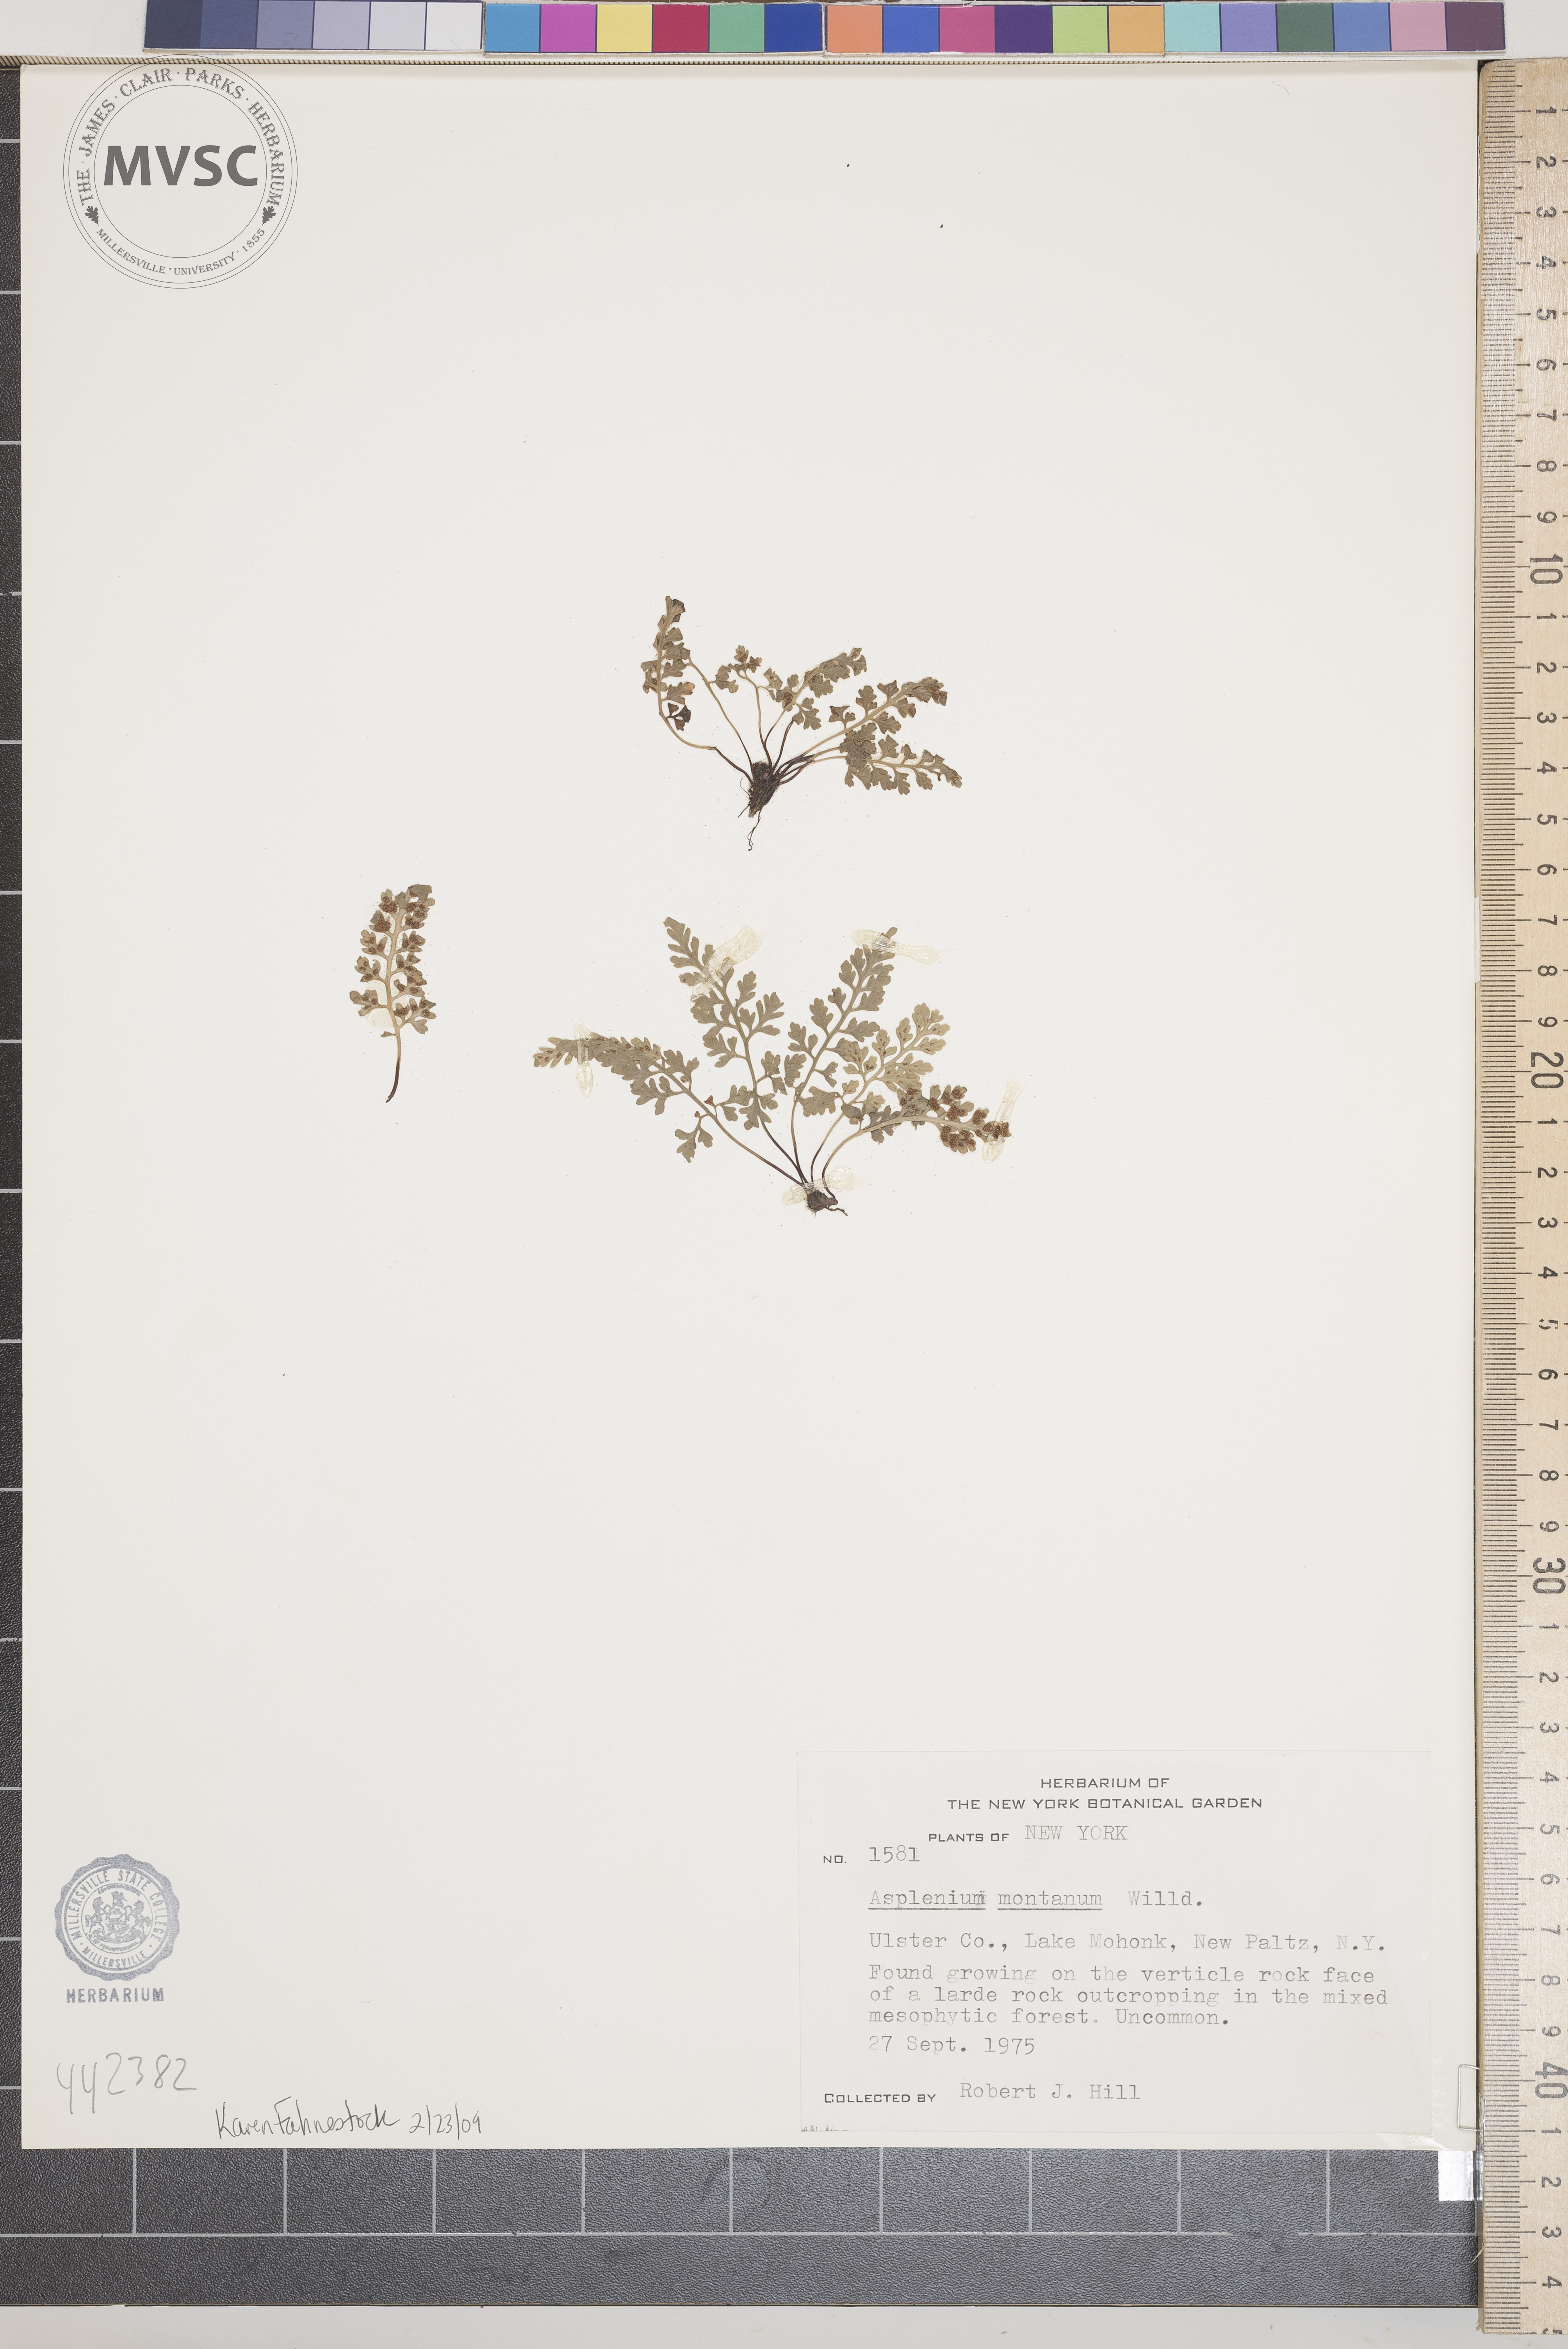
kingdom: Plantae
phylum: Tracheophyta
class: Polypodiopsida
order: Polypodiales
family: Aspleniaceae
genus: Asplenium
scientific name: Asplenium montanum
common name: Mountain spleenwort
